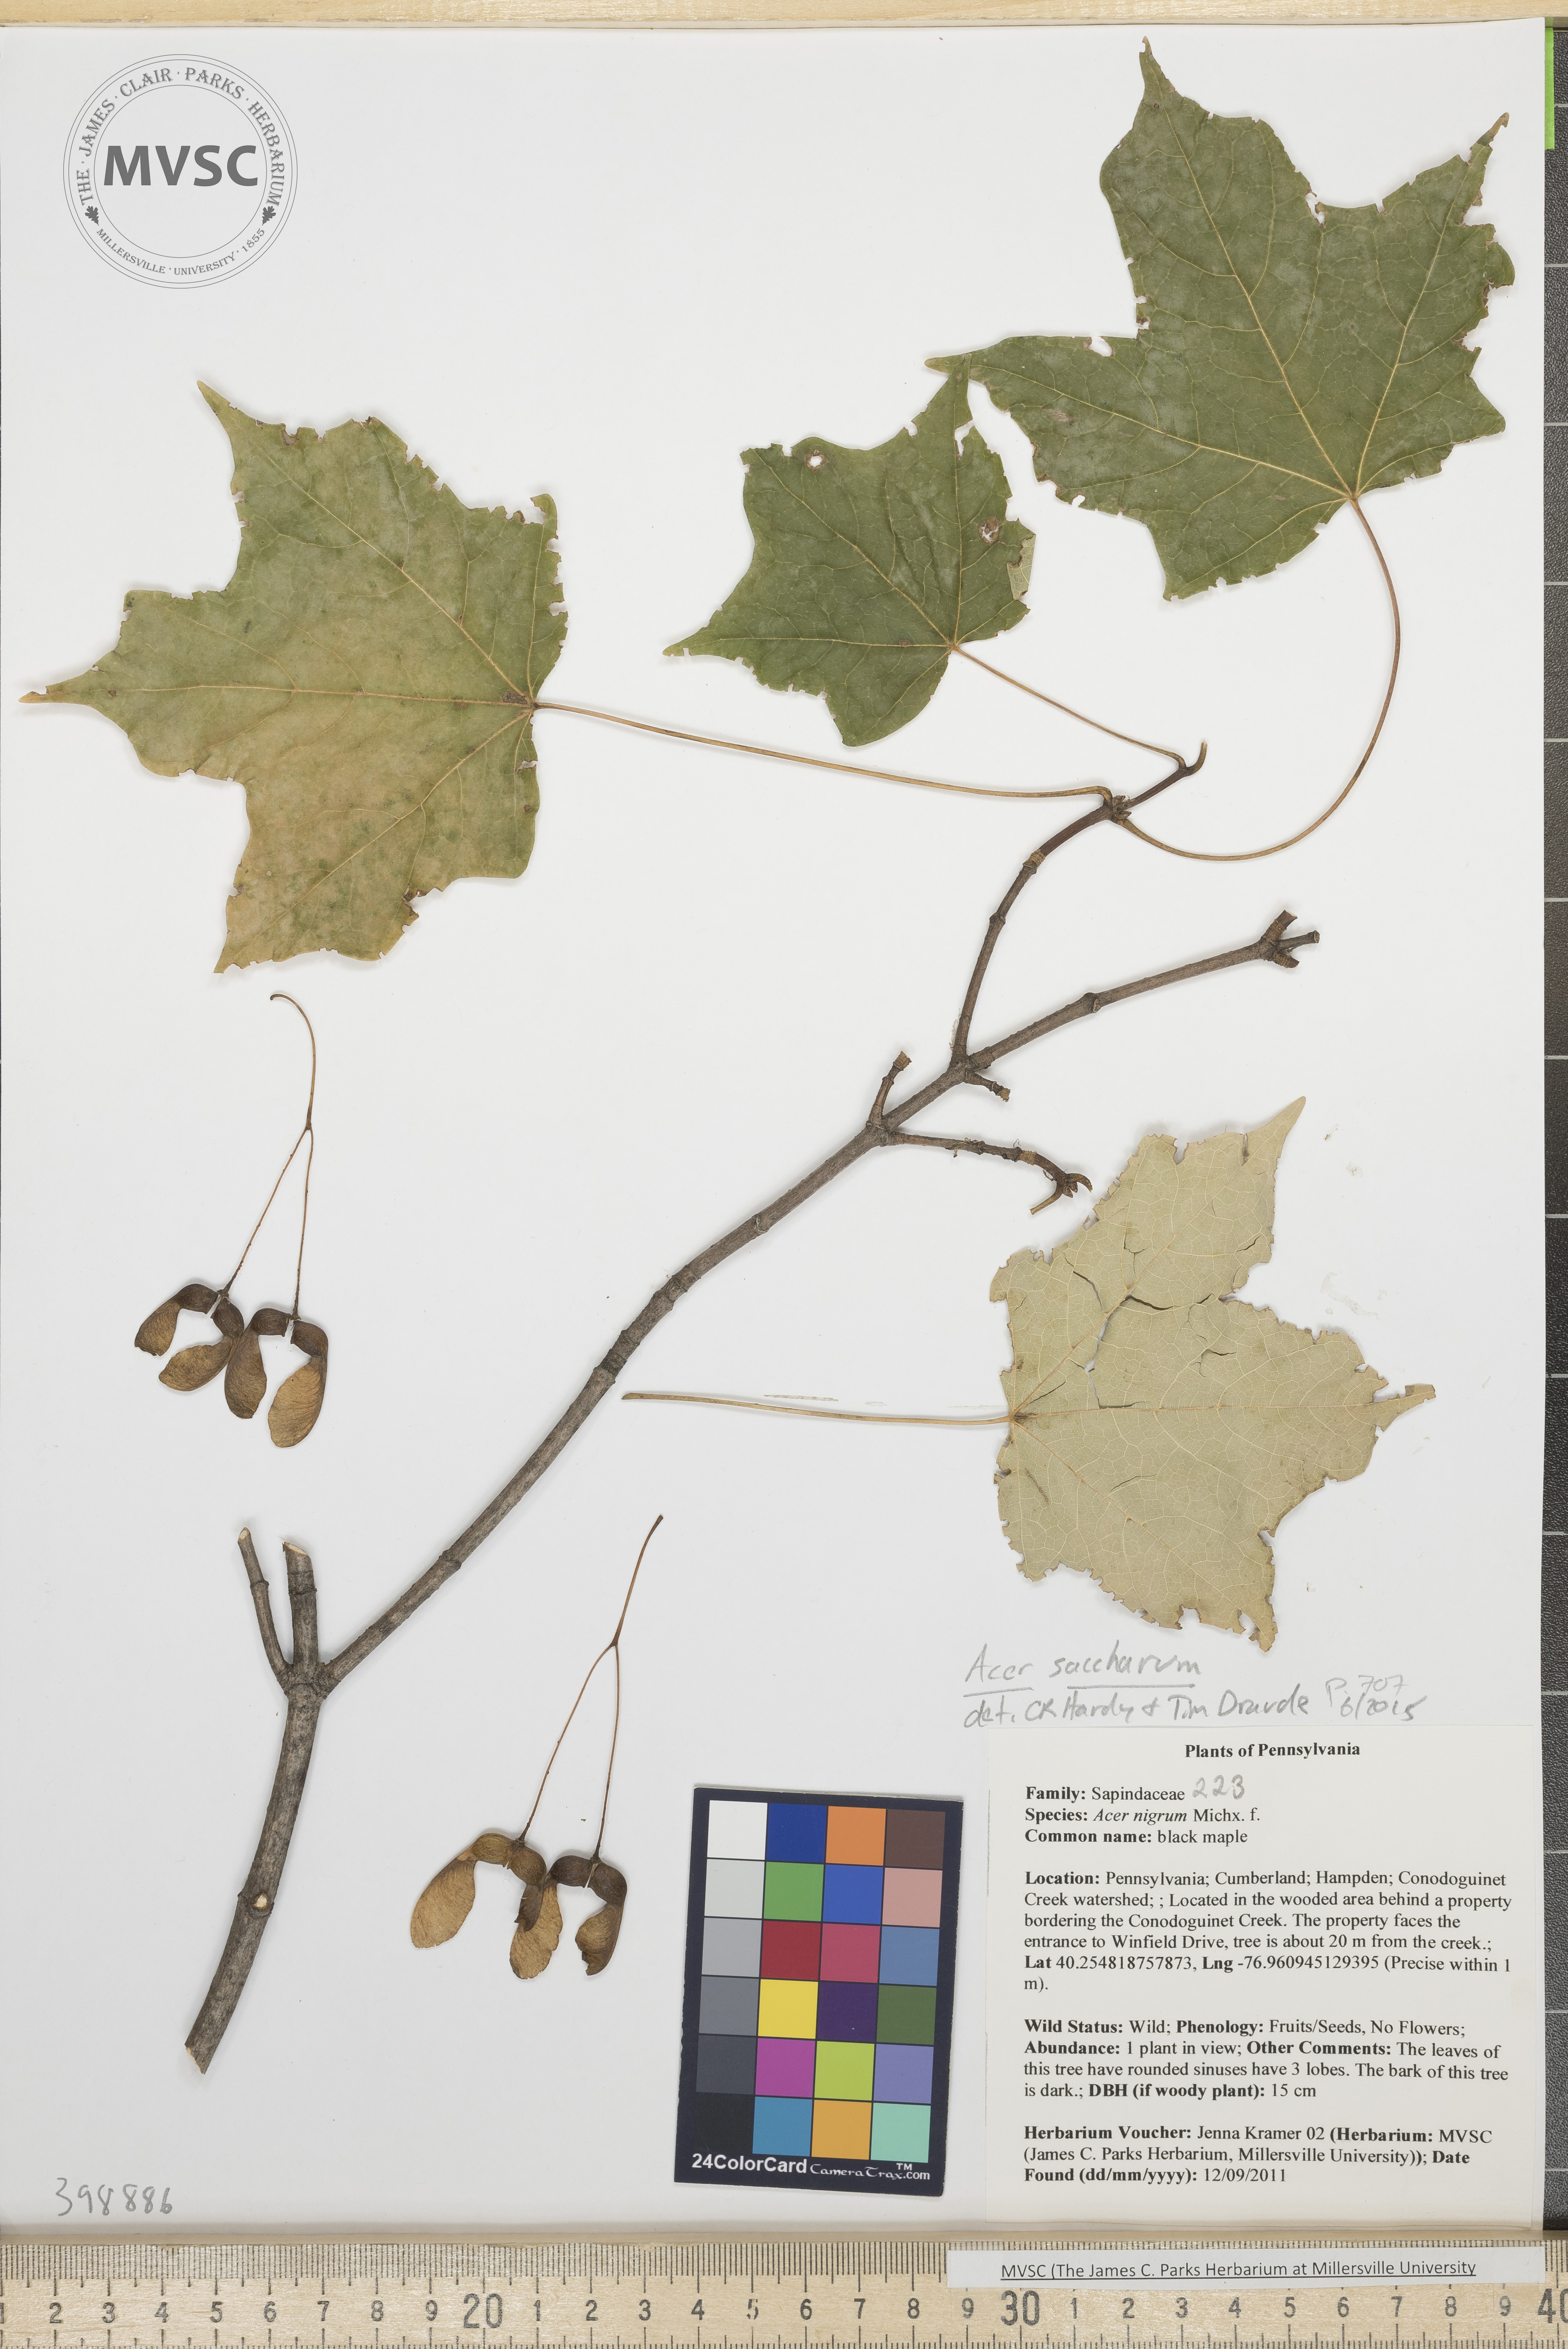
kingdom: Plantae
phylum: Tracheophyta
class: Magnoliopsida
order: Sapindales
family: Sapindaceae
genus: Acer
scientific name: Acer saccharum
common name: Sugar maple
